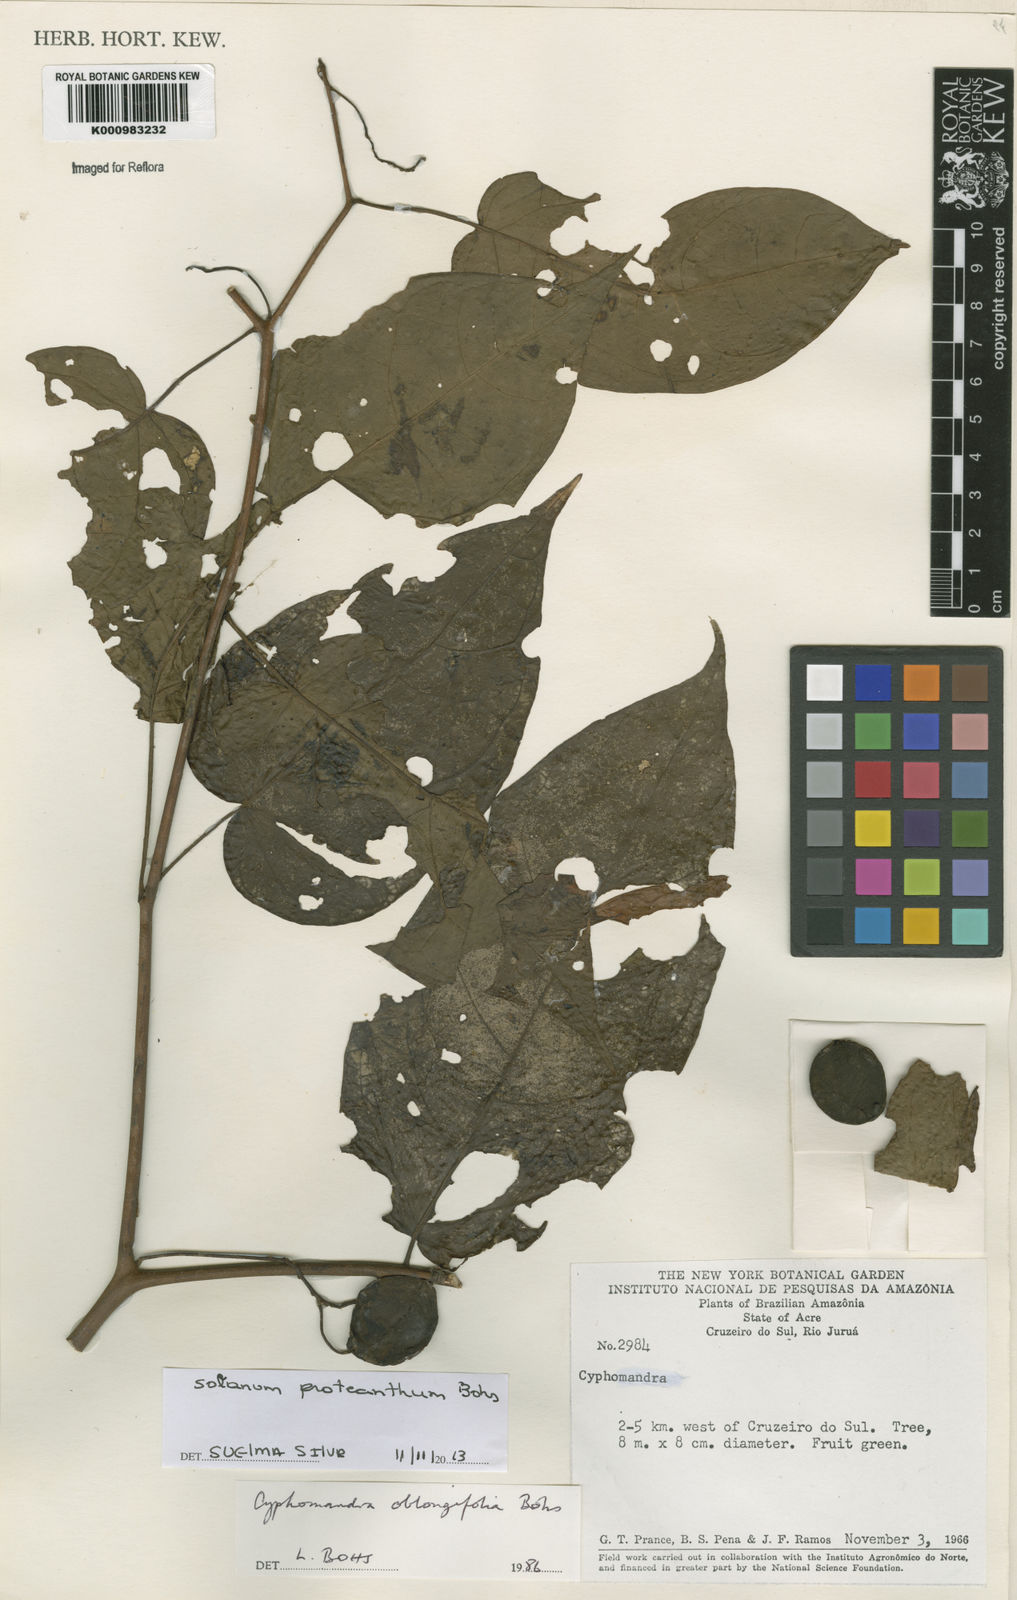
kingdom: Plantae
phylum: Tracheophyta
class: Magnoliopsida
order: Solanales
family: Solanaceae
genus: Solanum
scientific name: Solanum proteanthum
